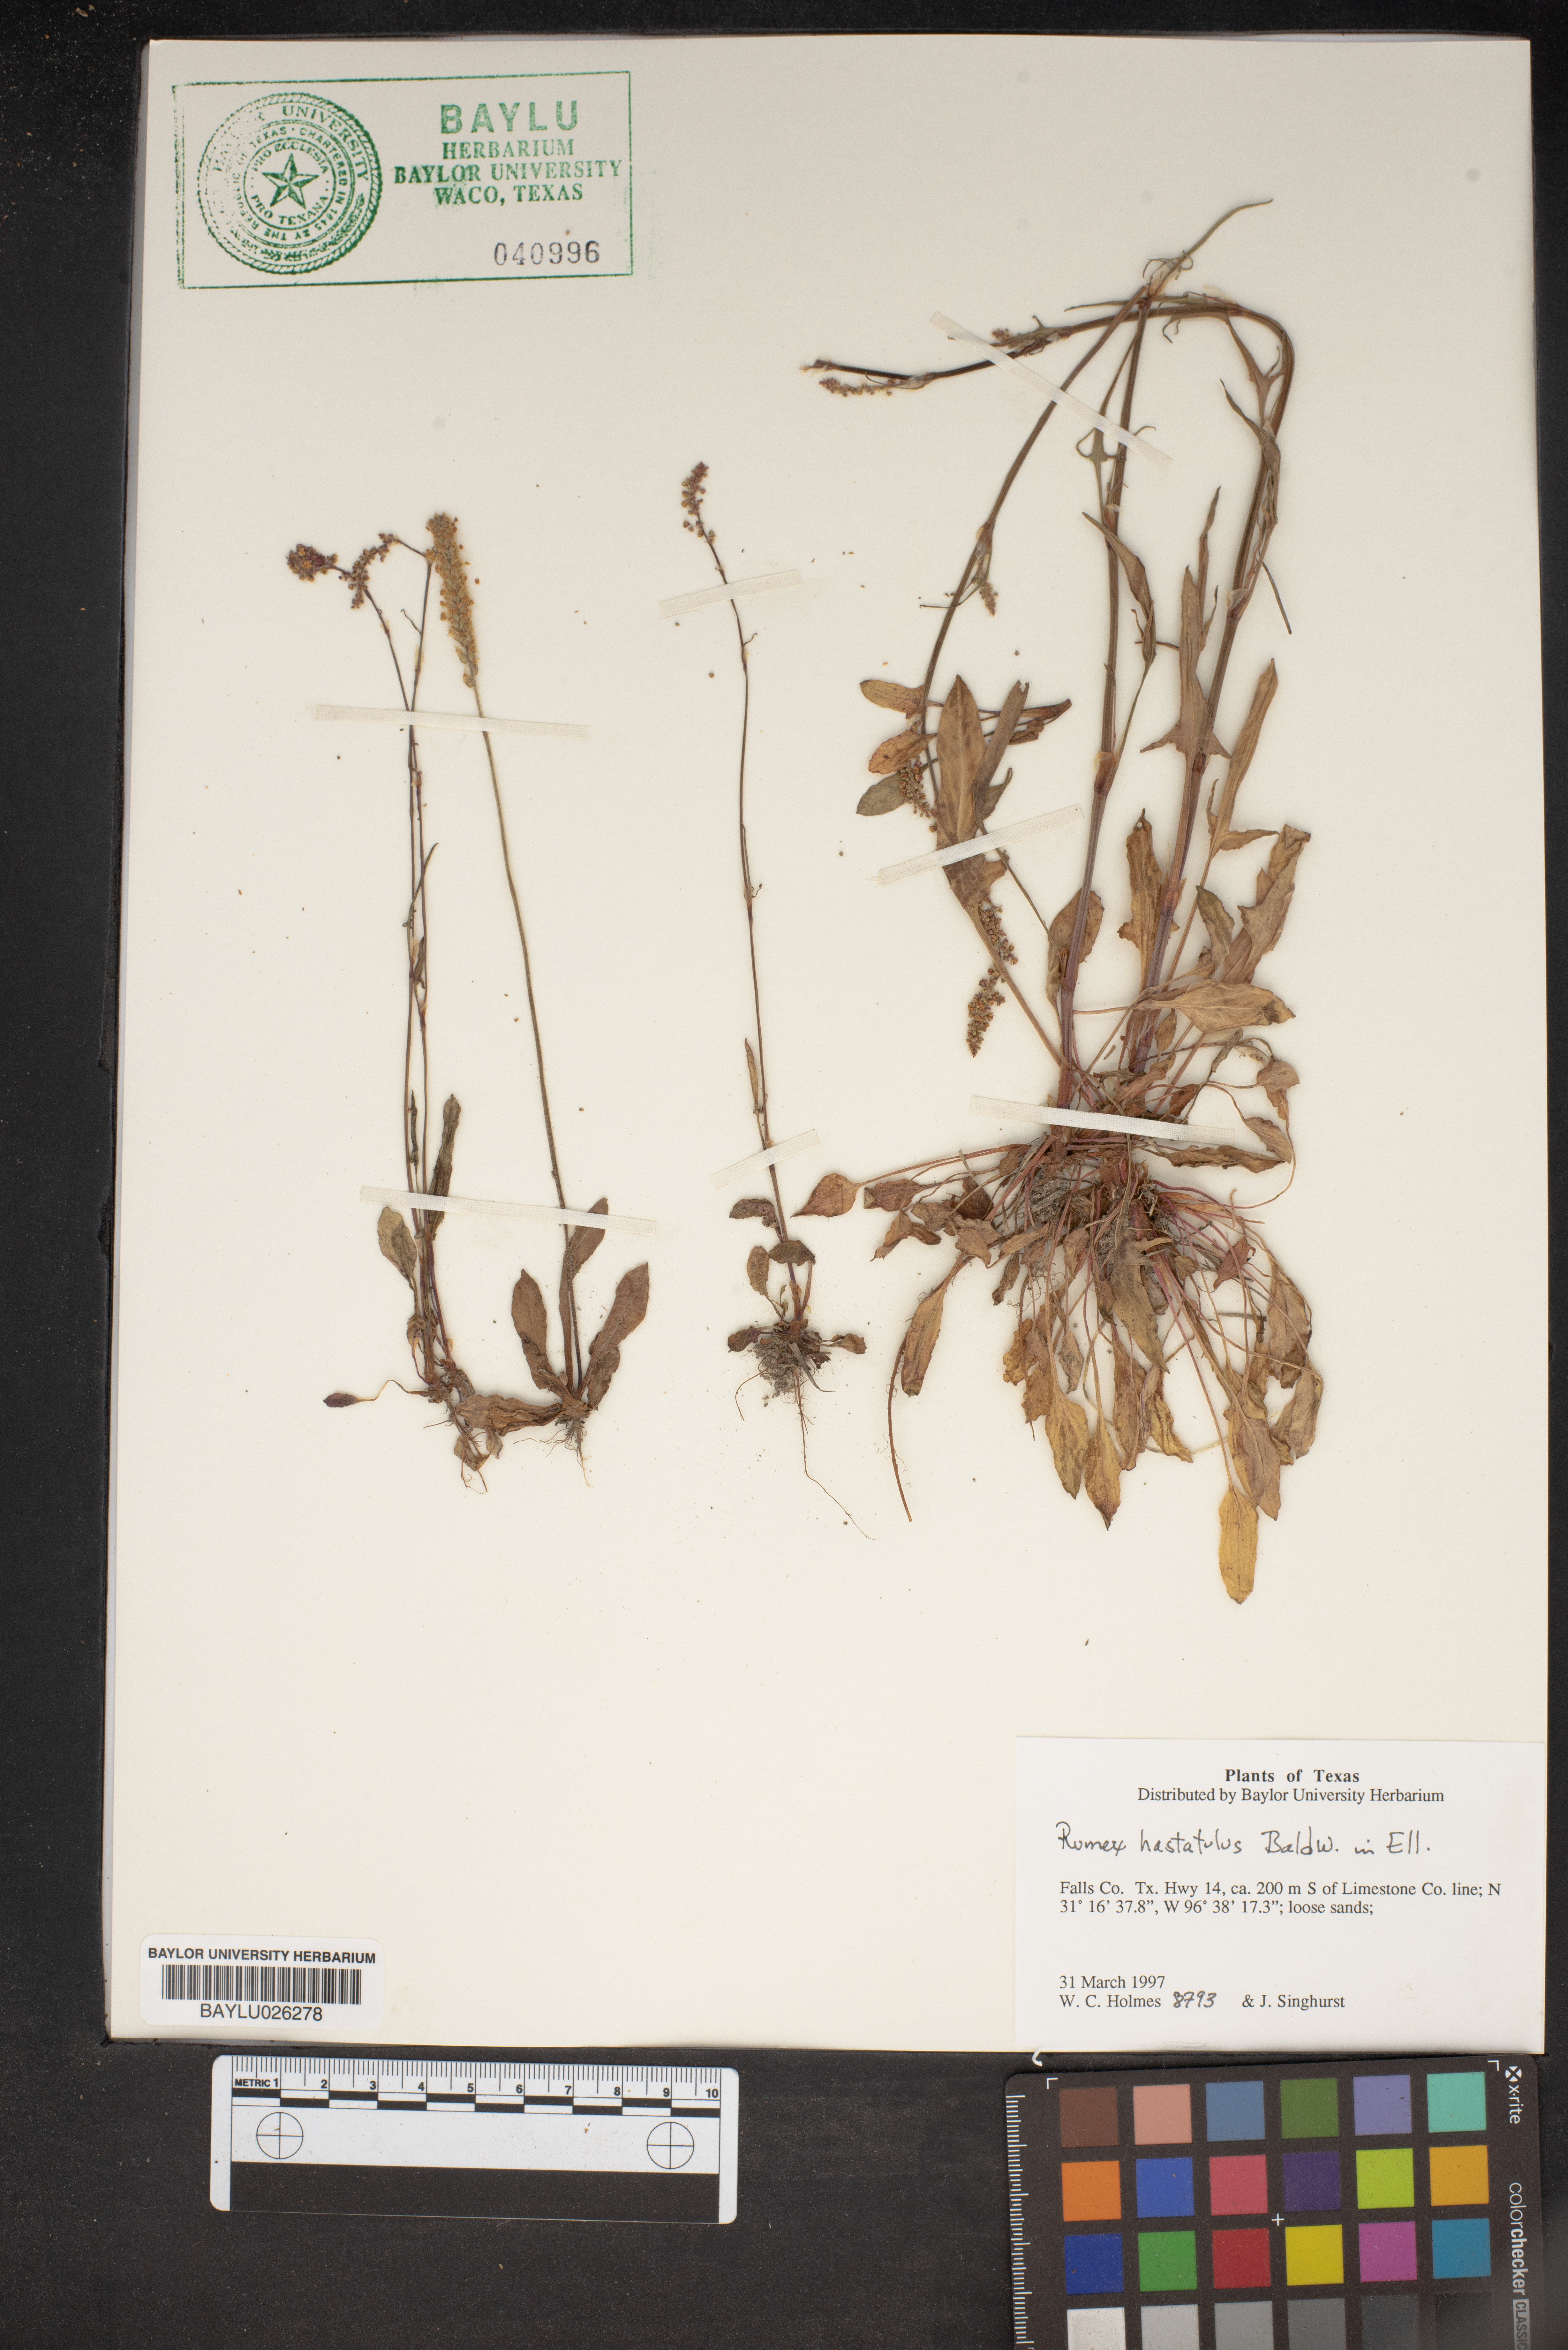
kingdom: Plantae
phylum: Tracheophyta
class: Magnoliopsida
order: Caryophyllales
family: Polygonaceae
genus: Rumex
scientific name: Rumex hastatulus
